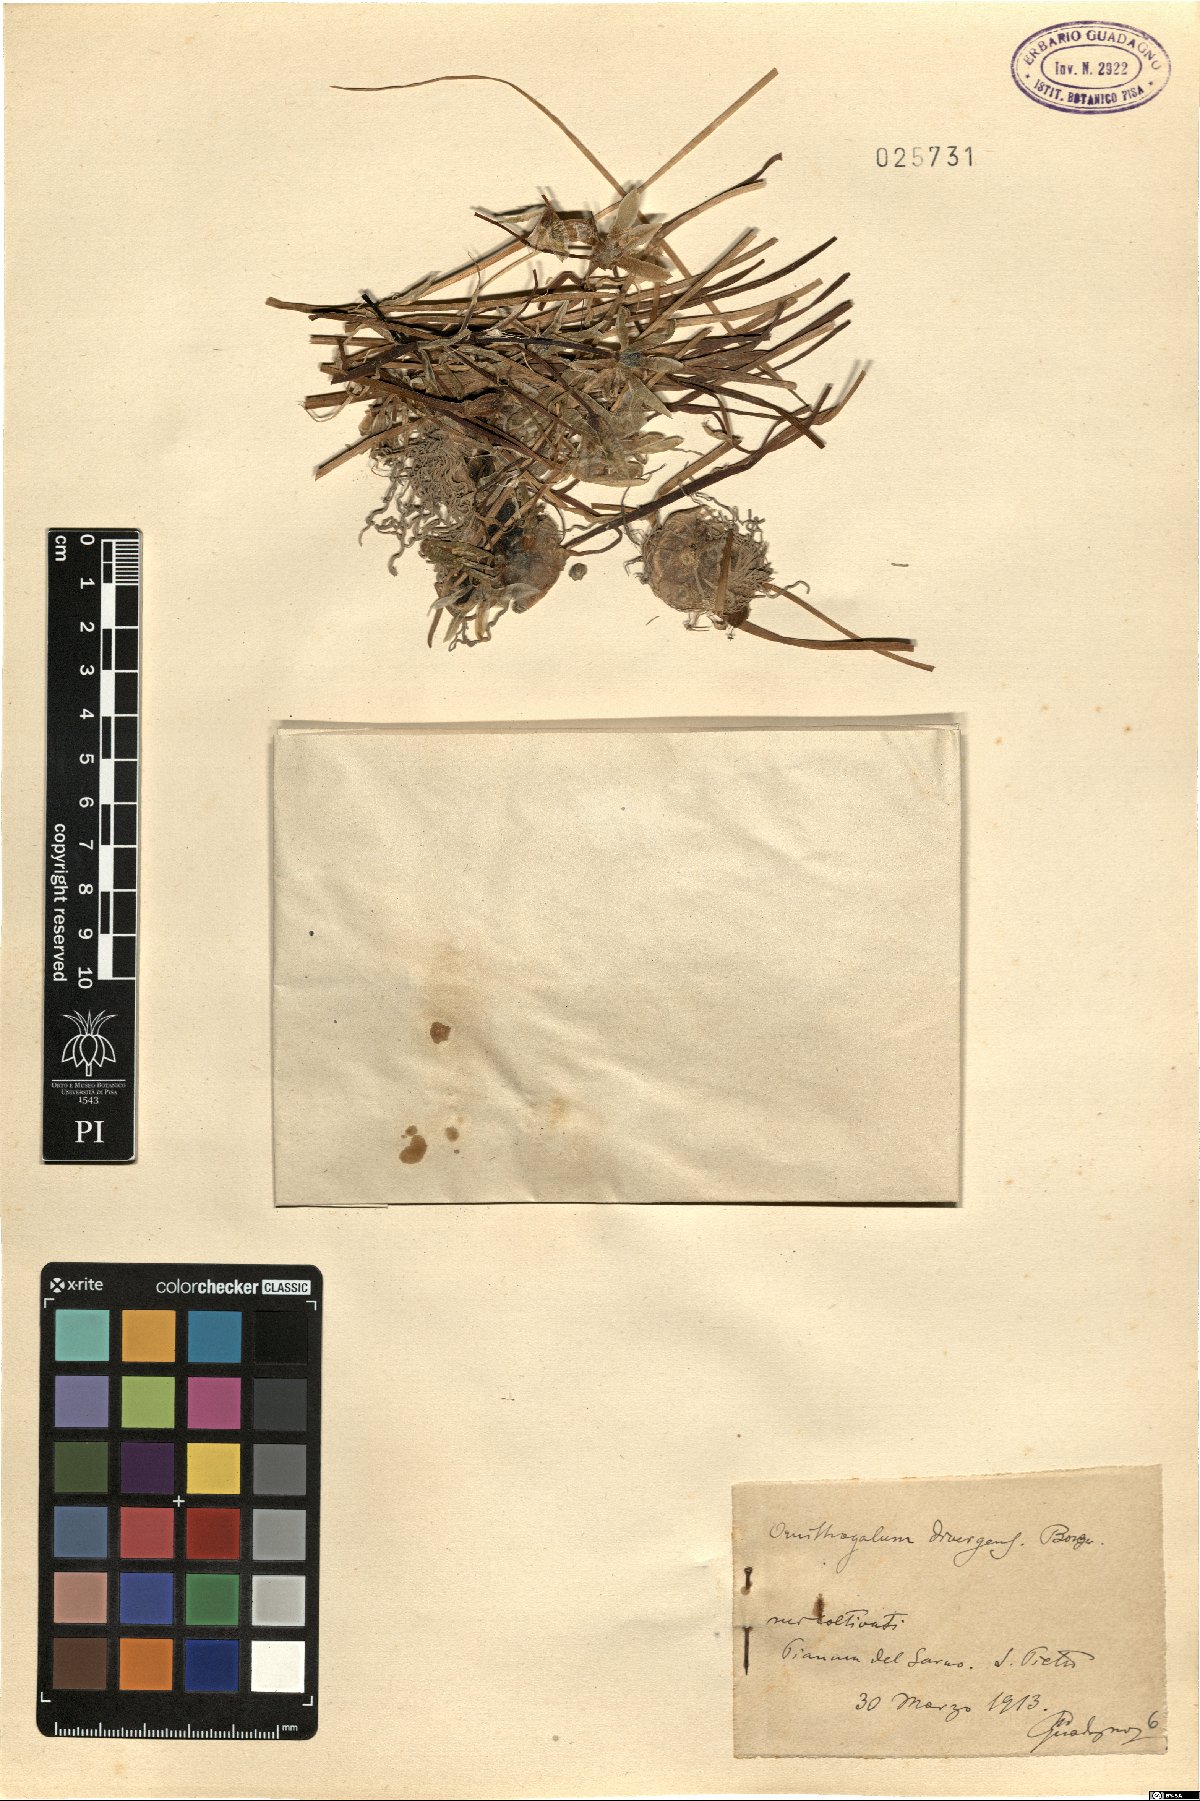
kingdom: Plantae
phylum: Tracheophyta
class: Liliopsida
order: Asparagales
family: Asparagaceae
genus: Ornithogalum
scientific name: Ornithogalum divergens
